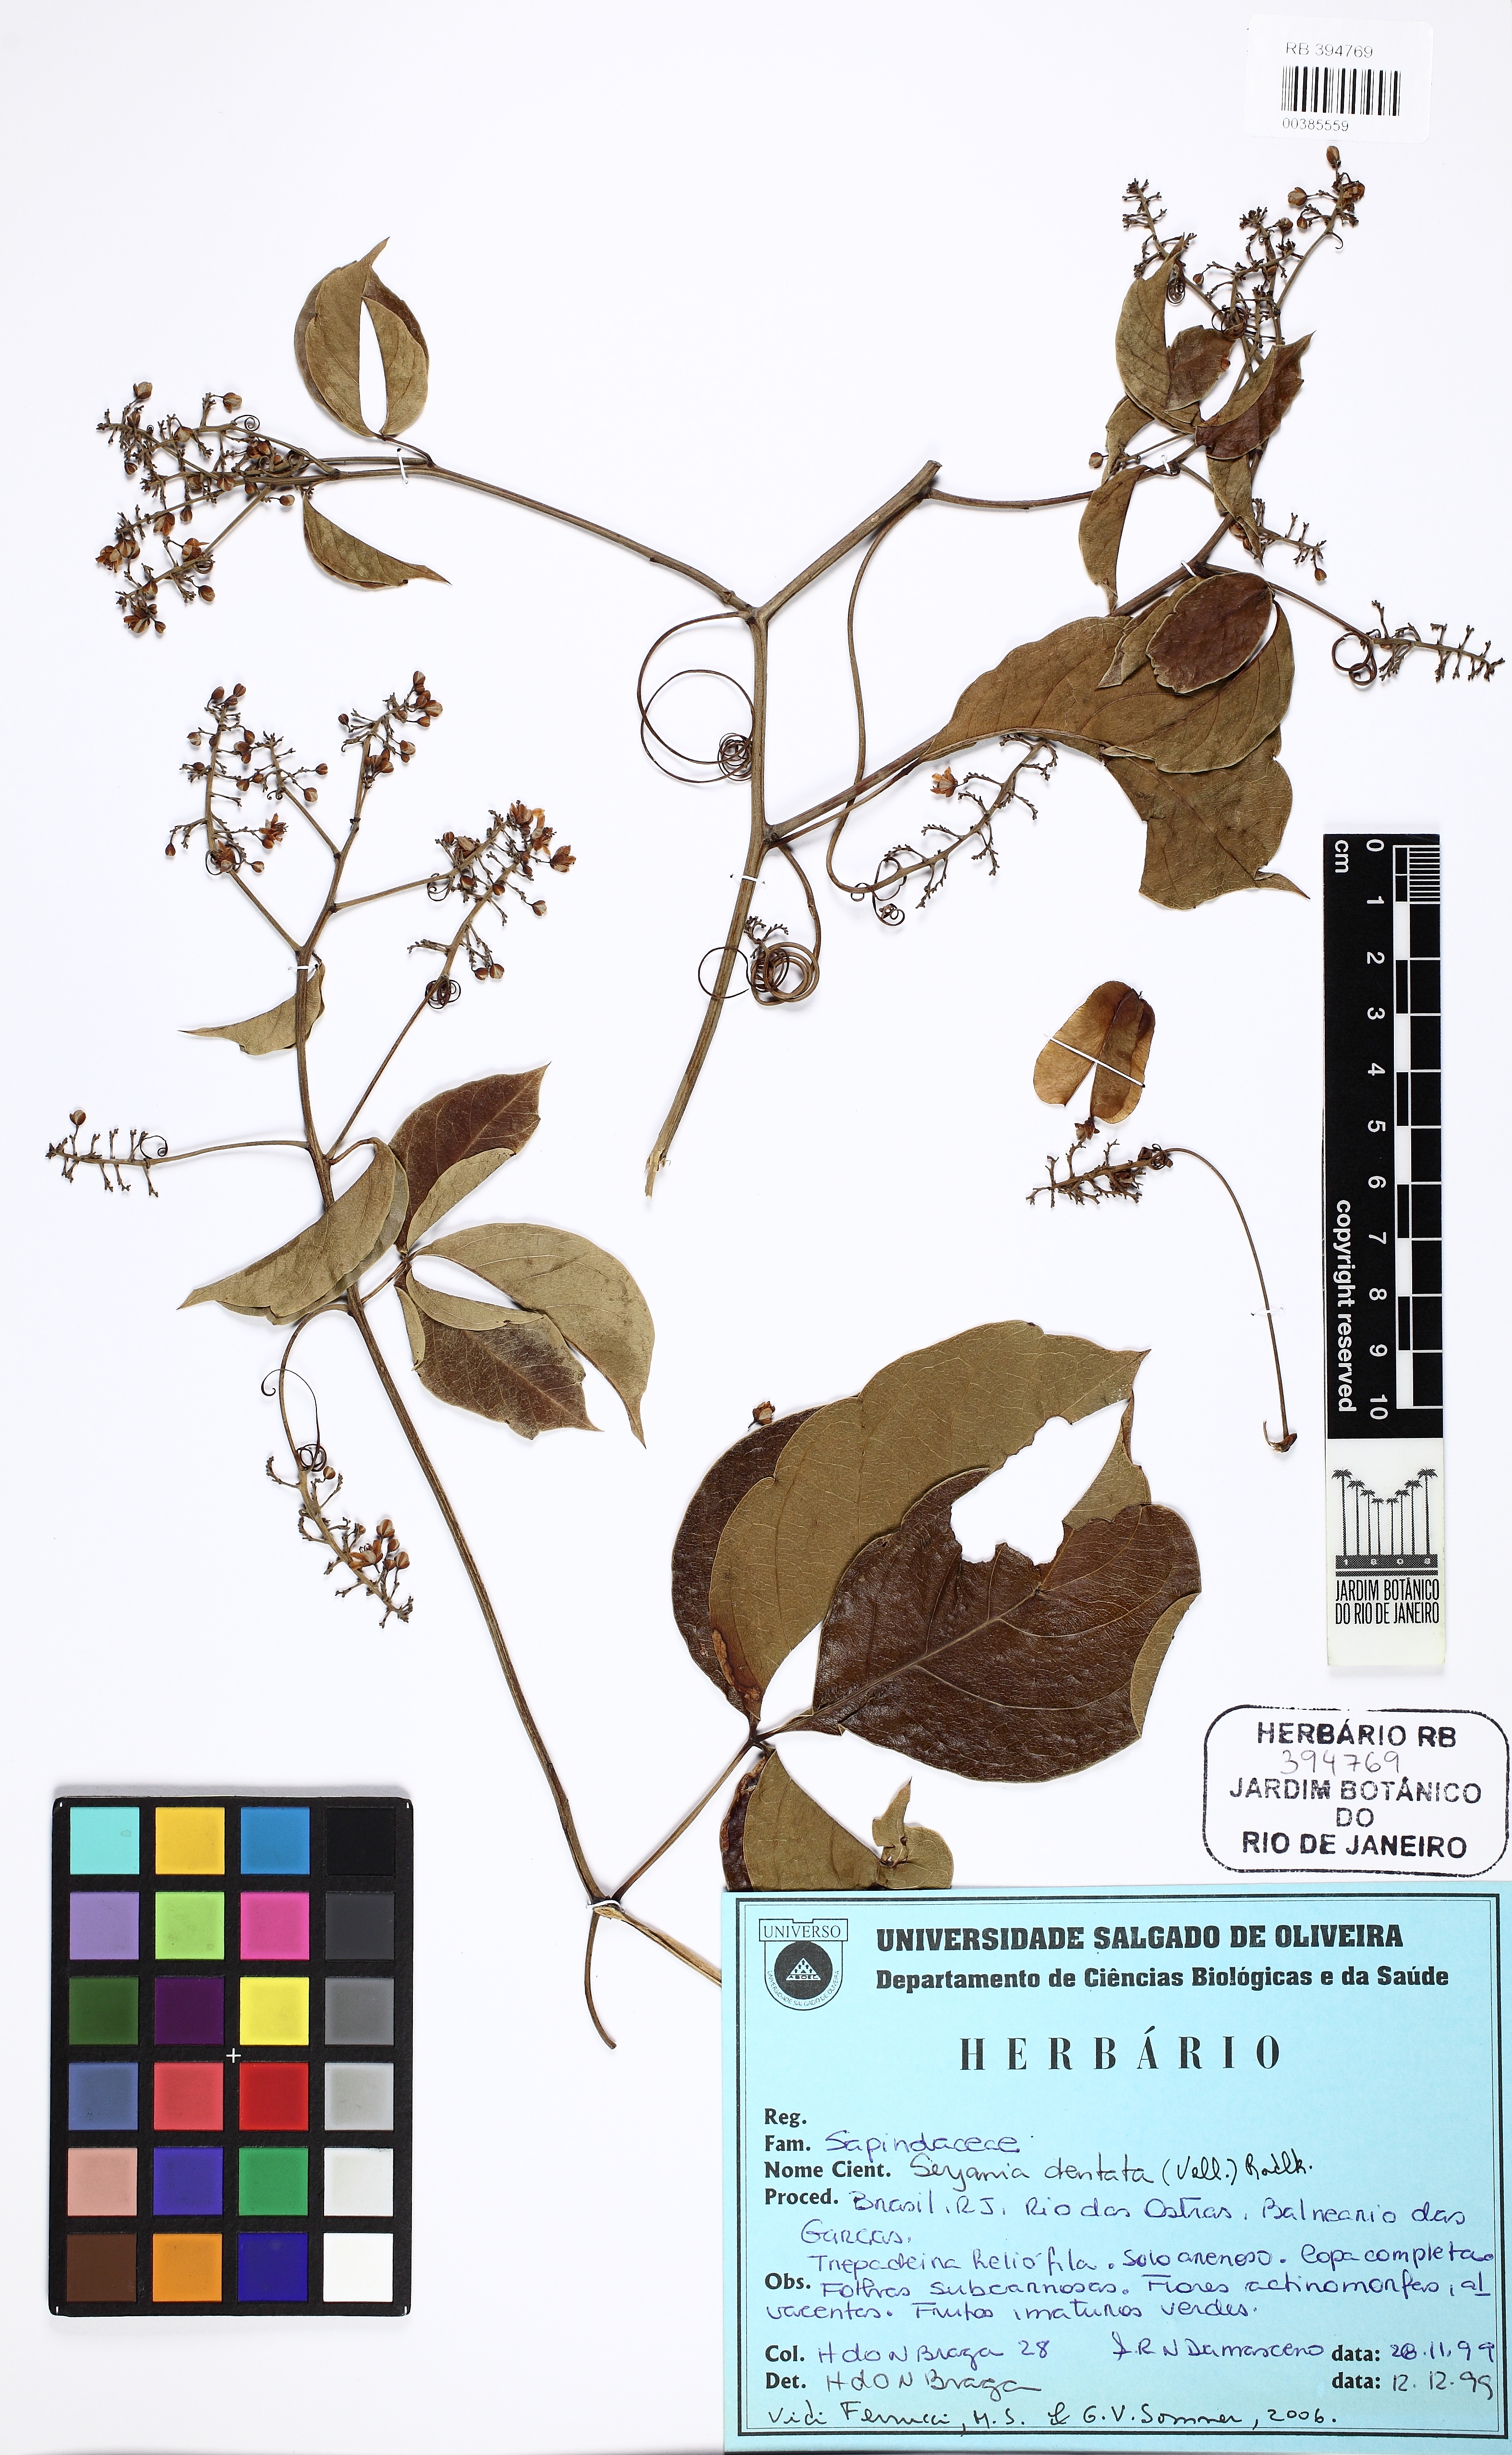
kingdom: Plantae
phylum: Tracheophyta
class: Magnoliopsida
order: Sapindales
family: Sapindaceae
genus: Serjania
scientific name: Serjania dentata
